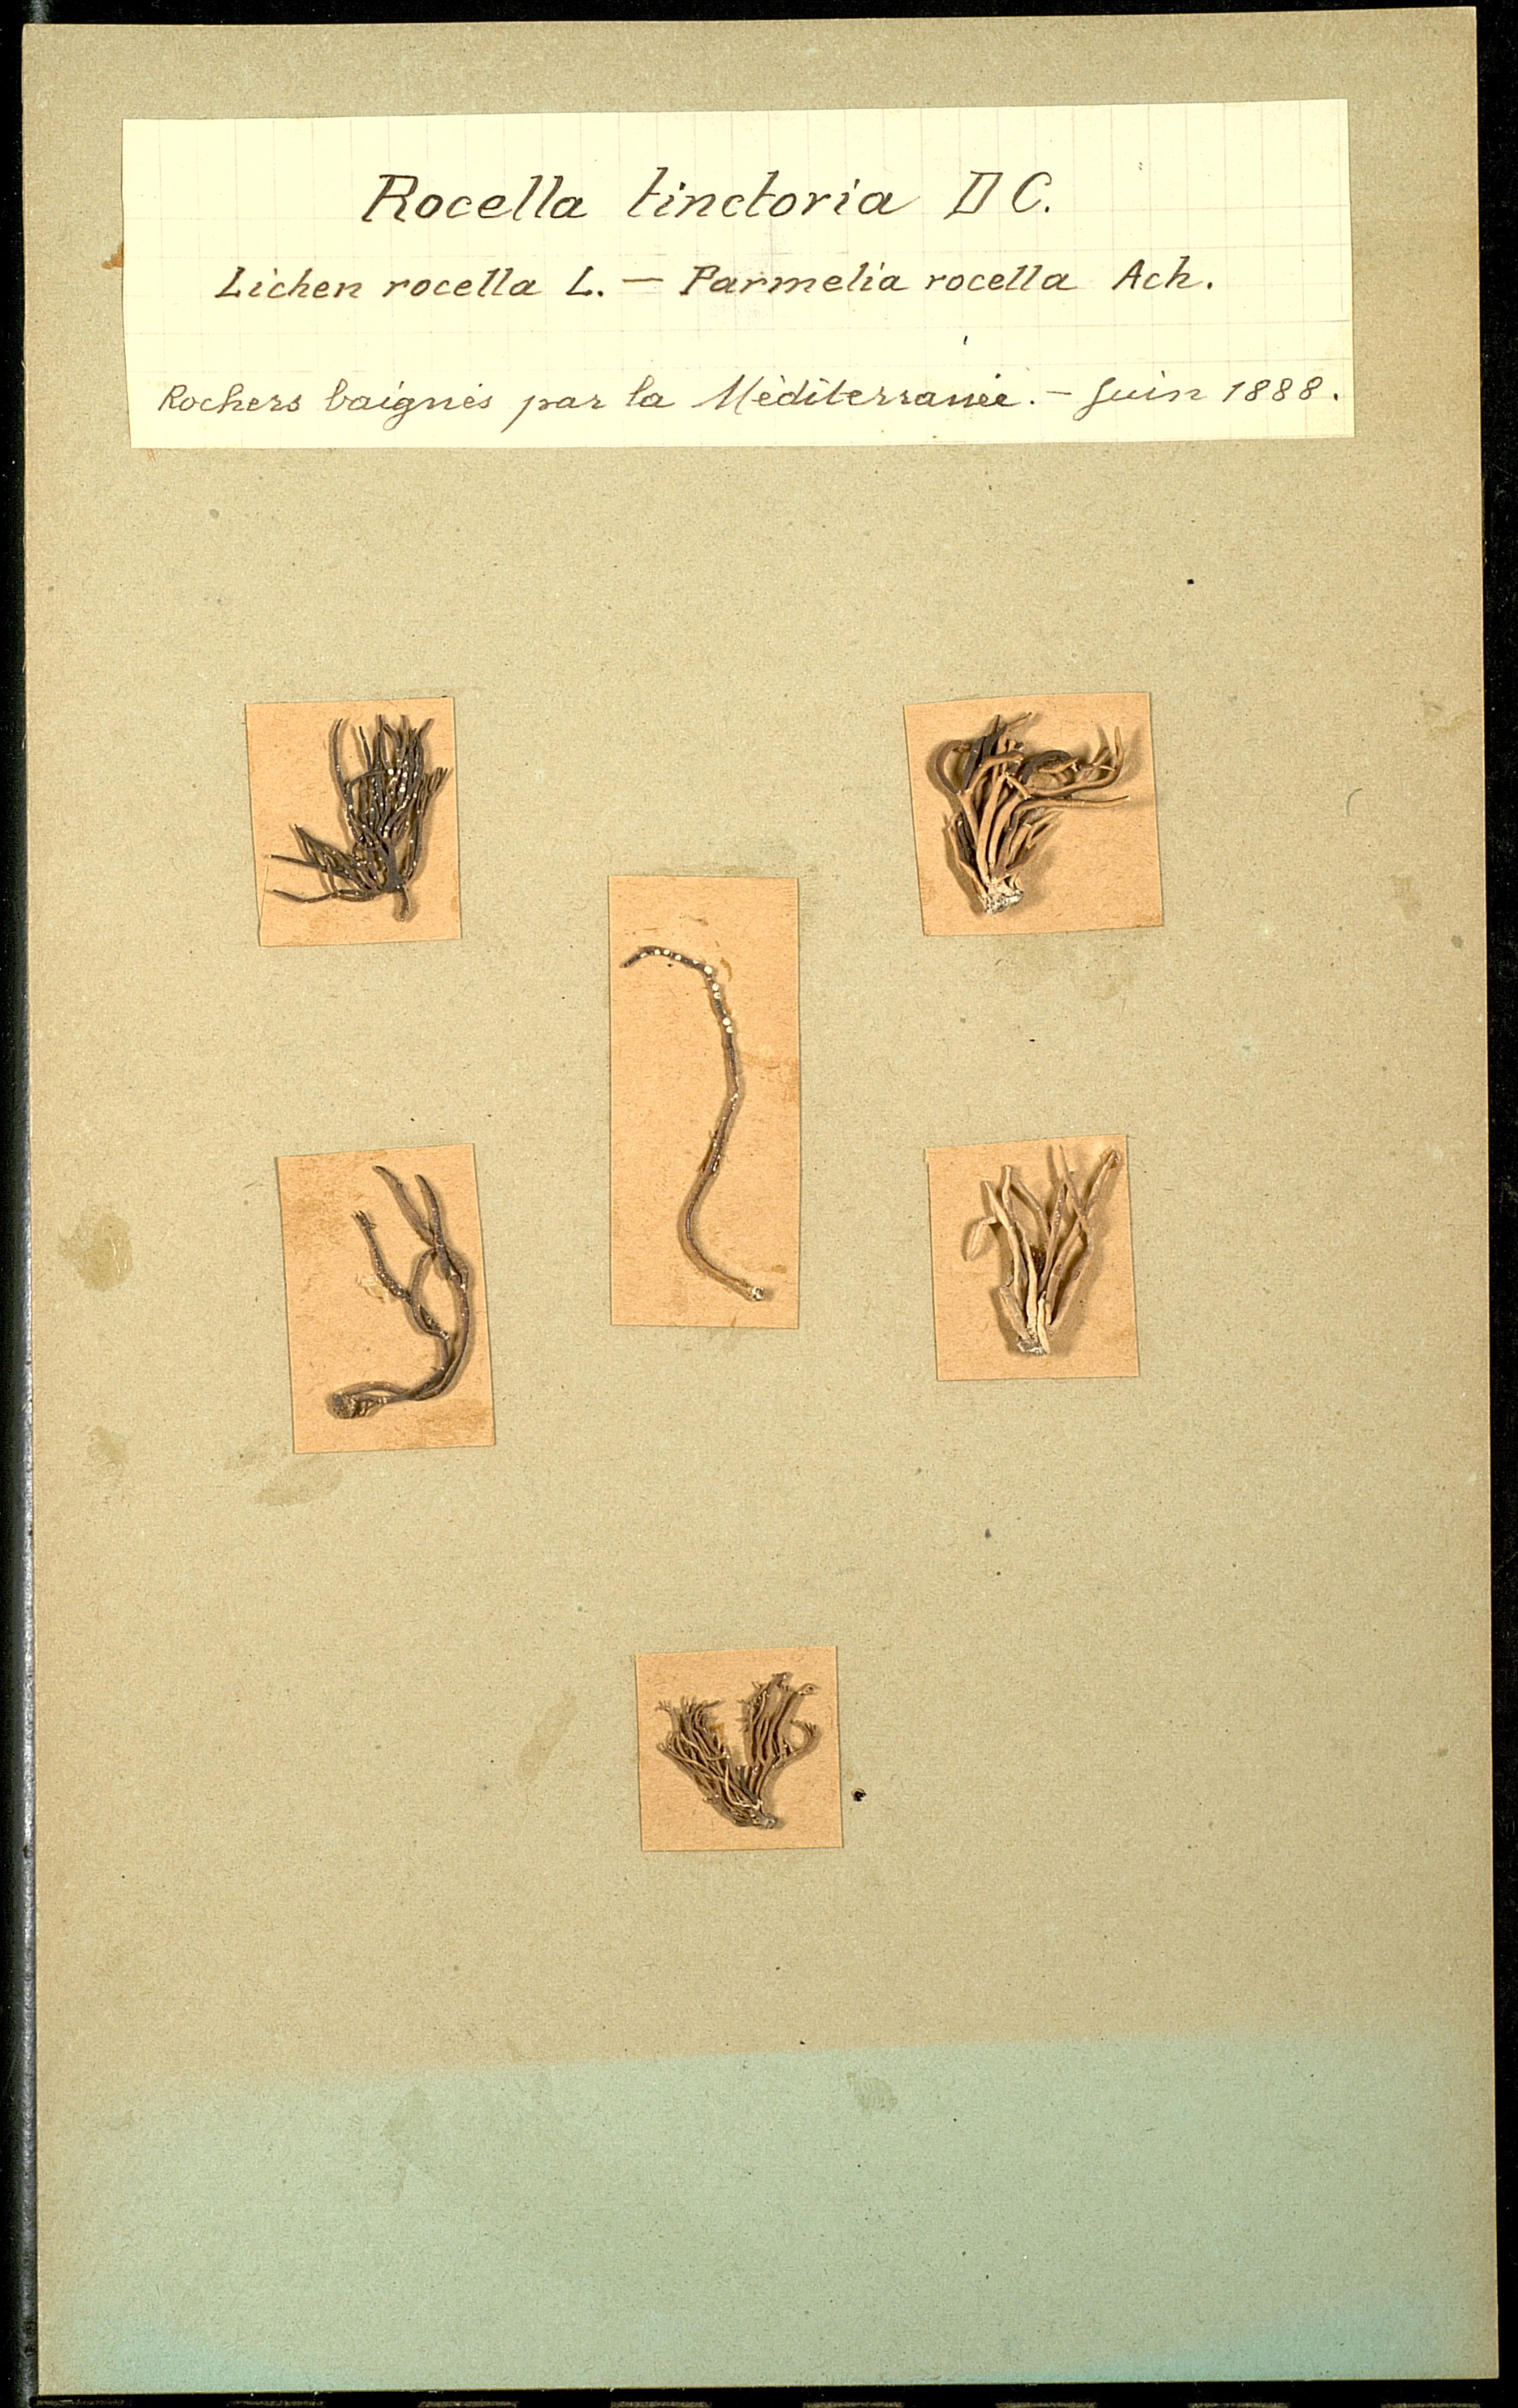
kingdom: Fungi
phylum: Ascomycota
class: Arthoniomycetes
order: Arthoniales
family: Roccellaceae
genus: Roccella
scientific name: Roccella phycopsis
